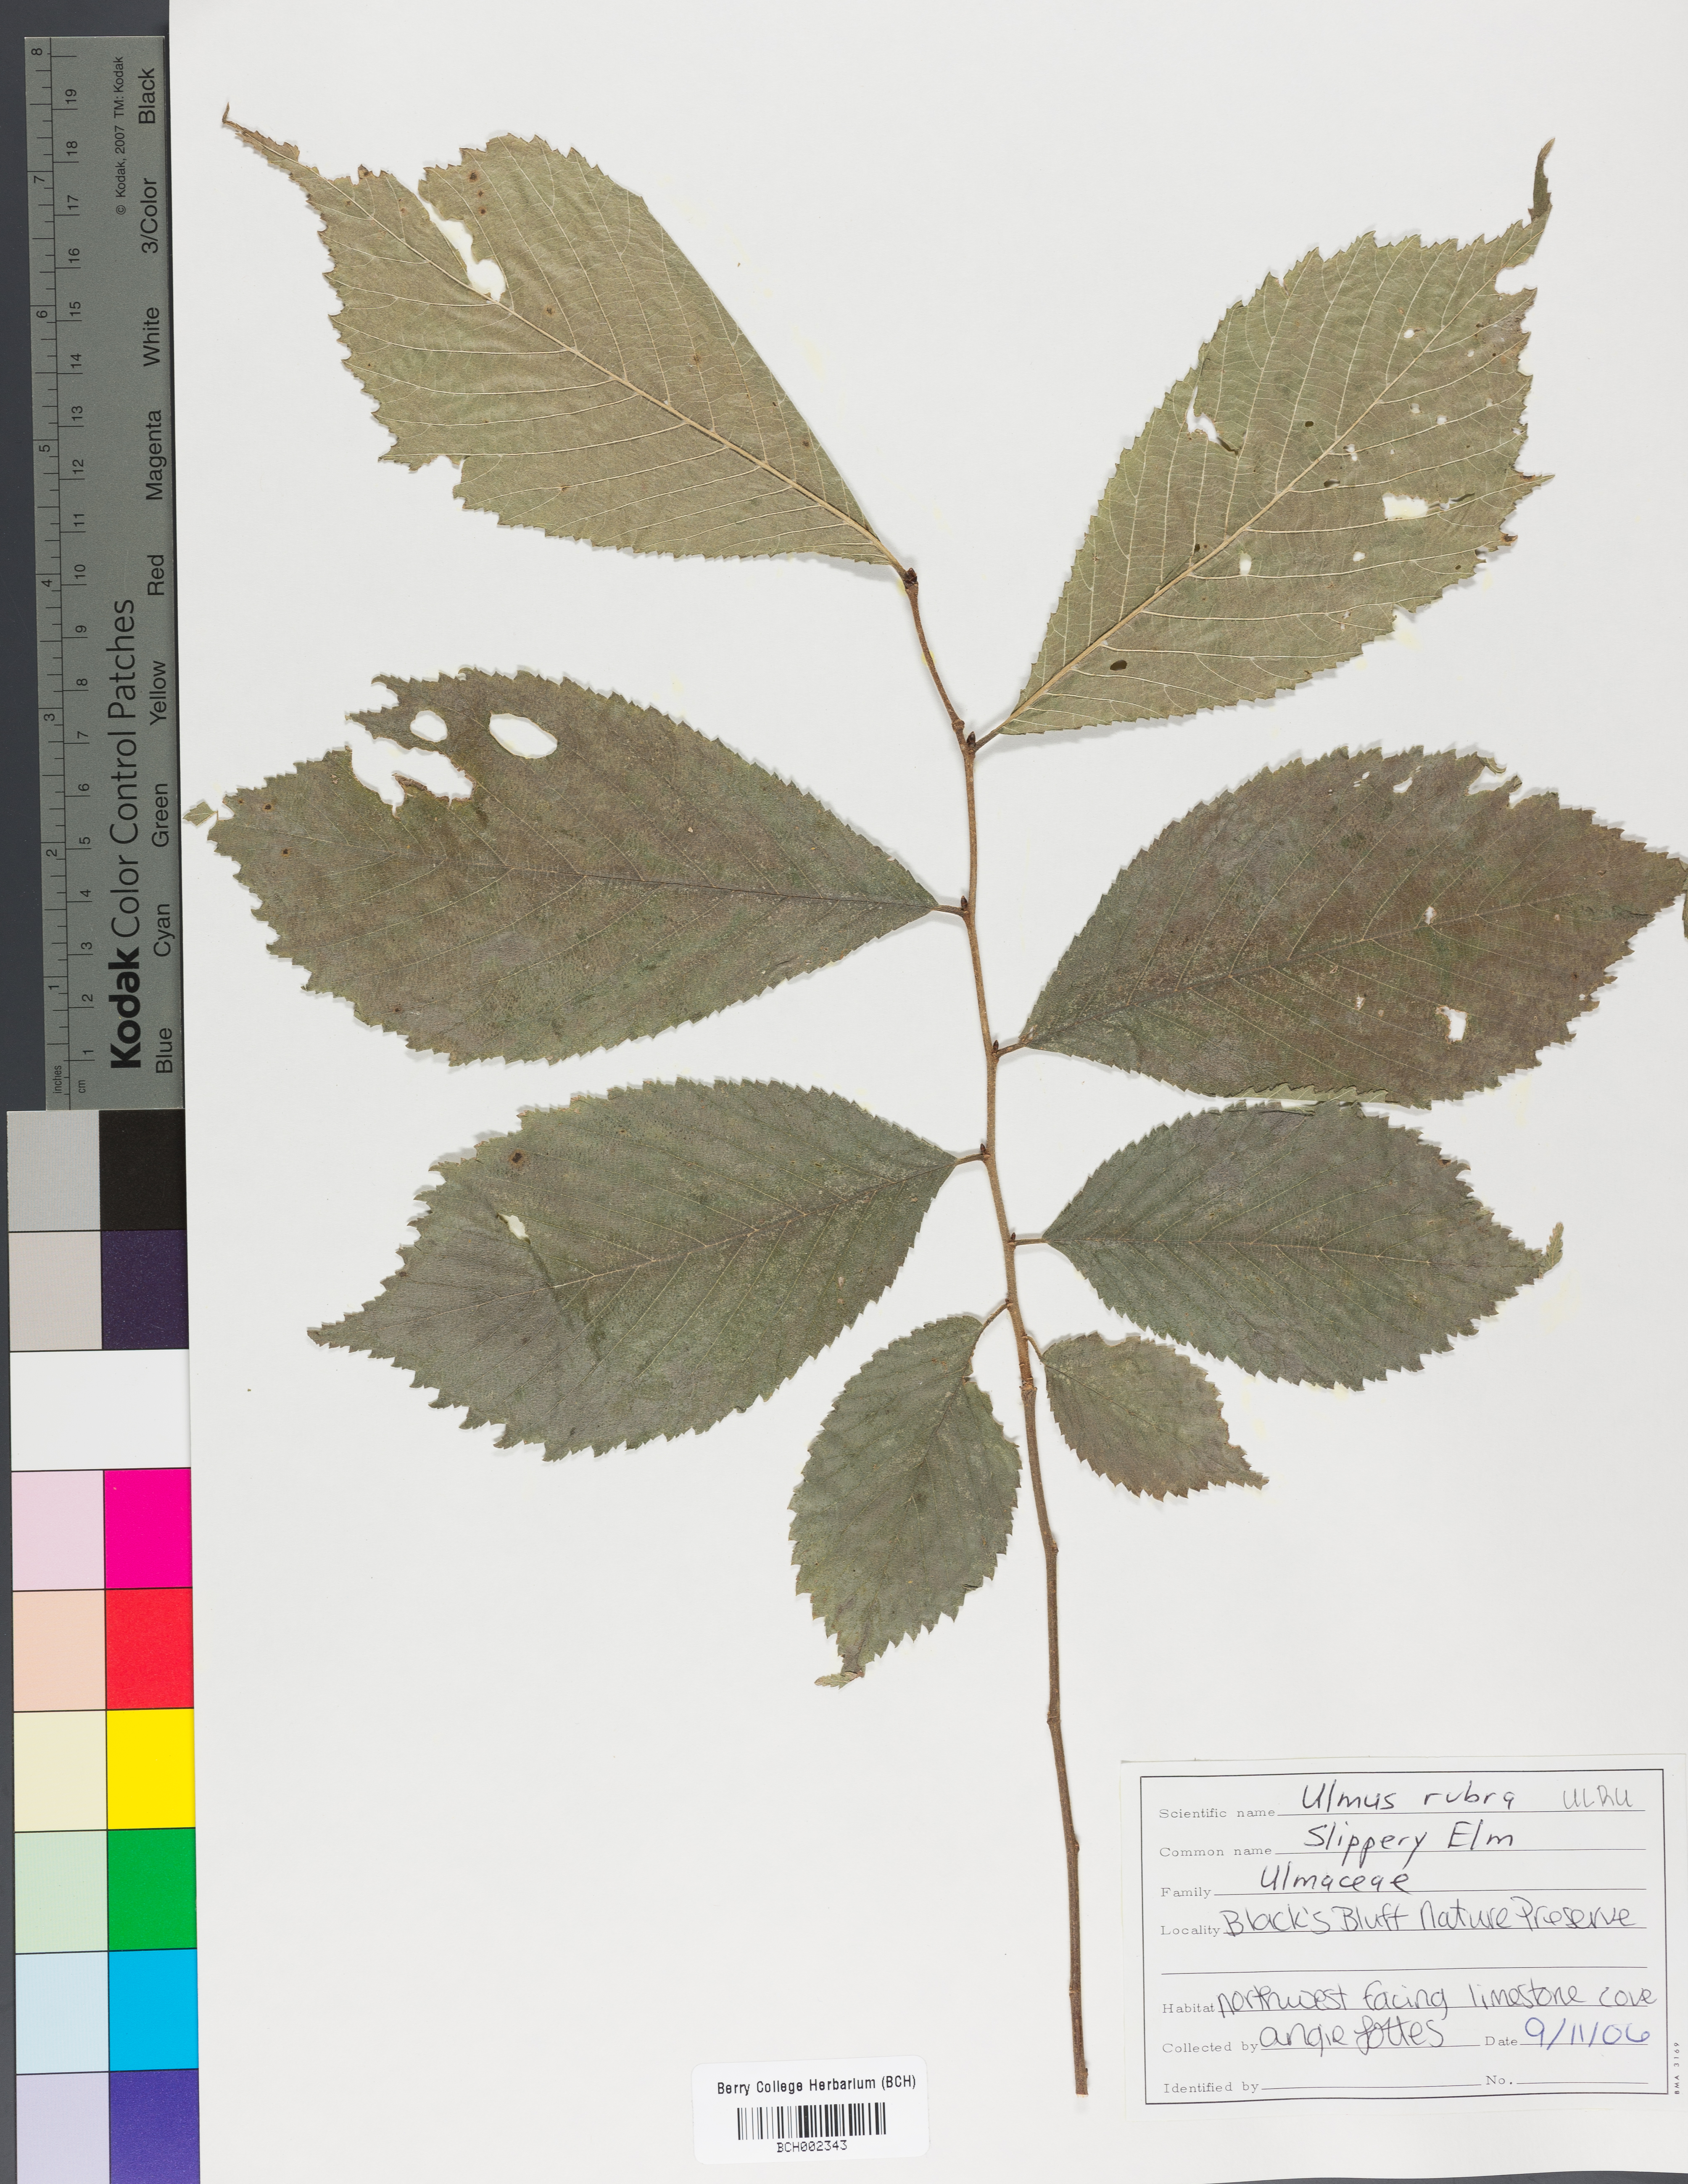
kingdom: Plantae
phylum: Tracheophyta
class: Magnoliopsida
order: Rosales
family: Ulmaceae
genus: Ulmus
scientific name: Ulmus rubra
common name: Slippery elm
